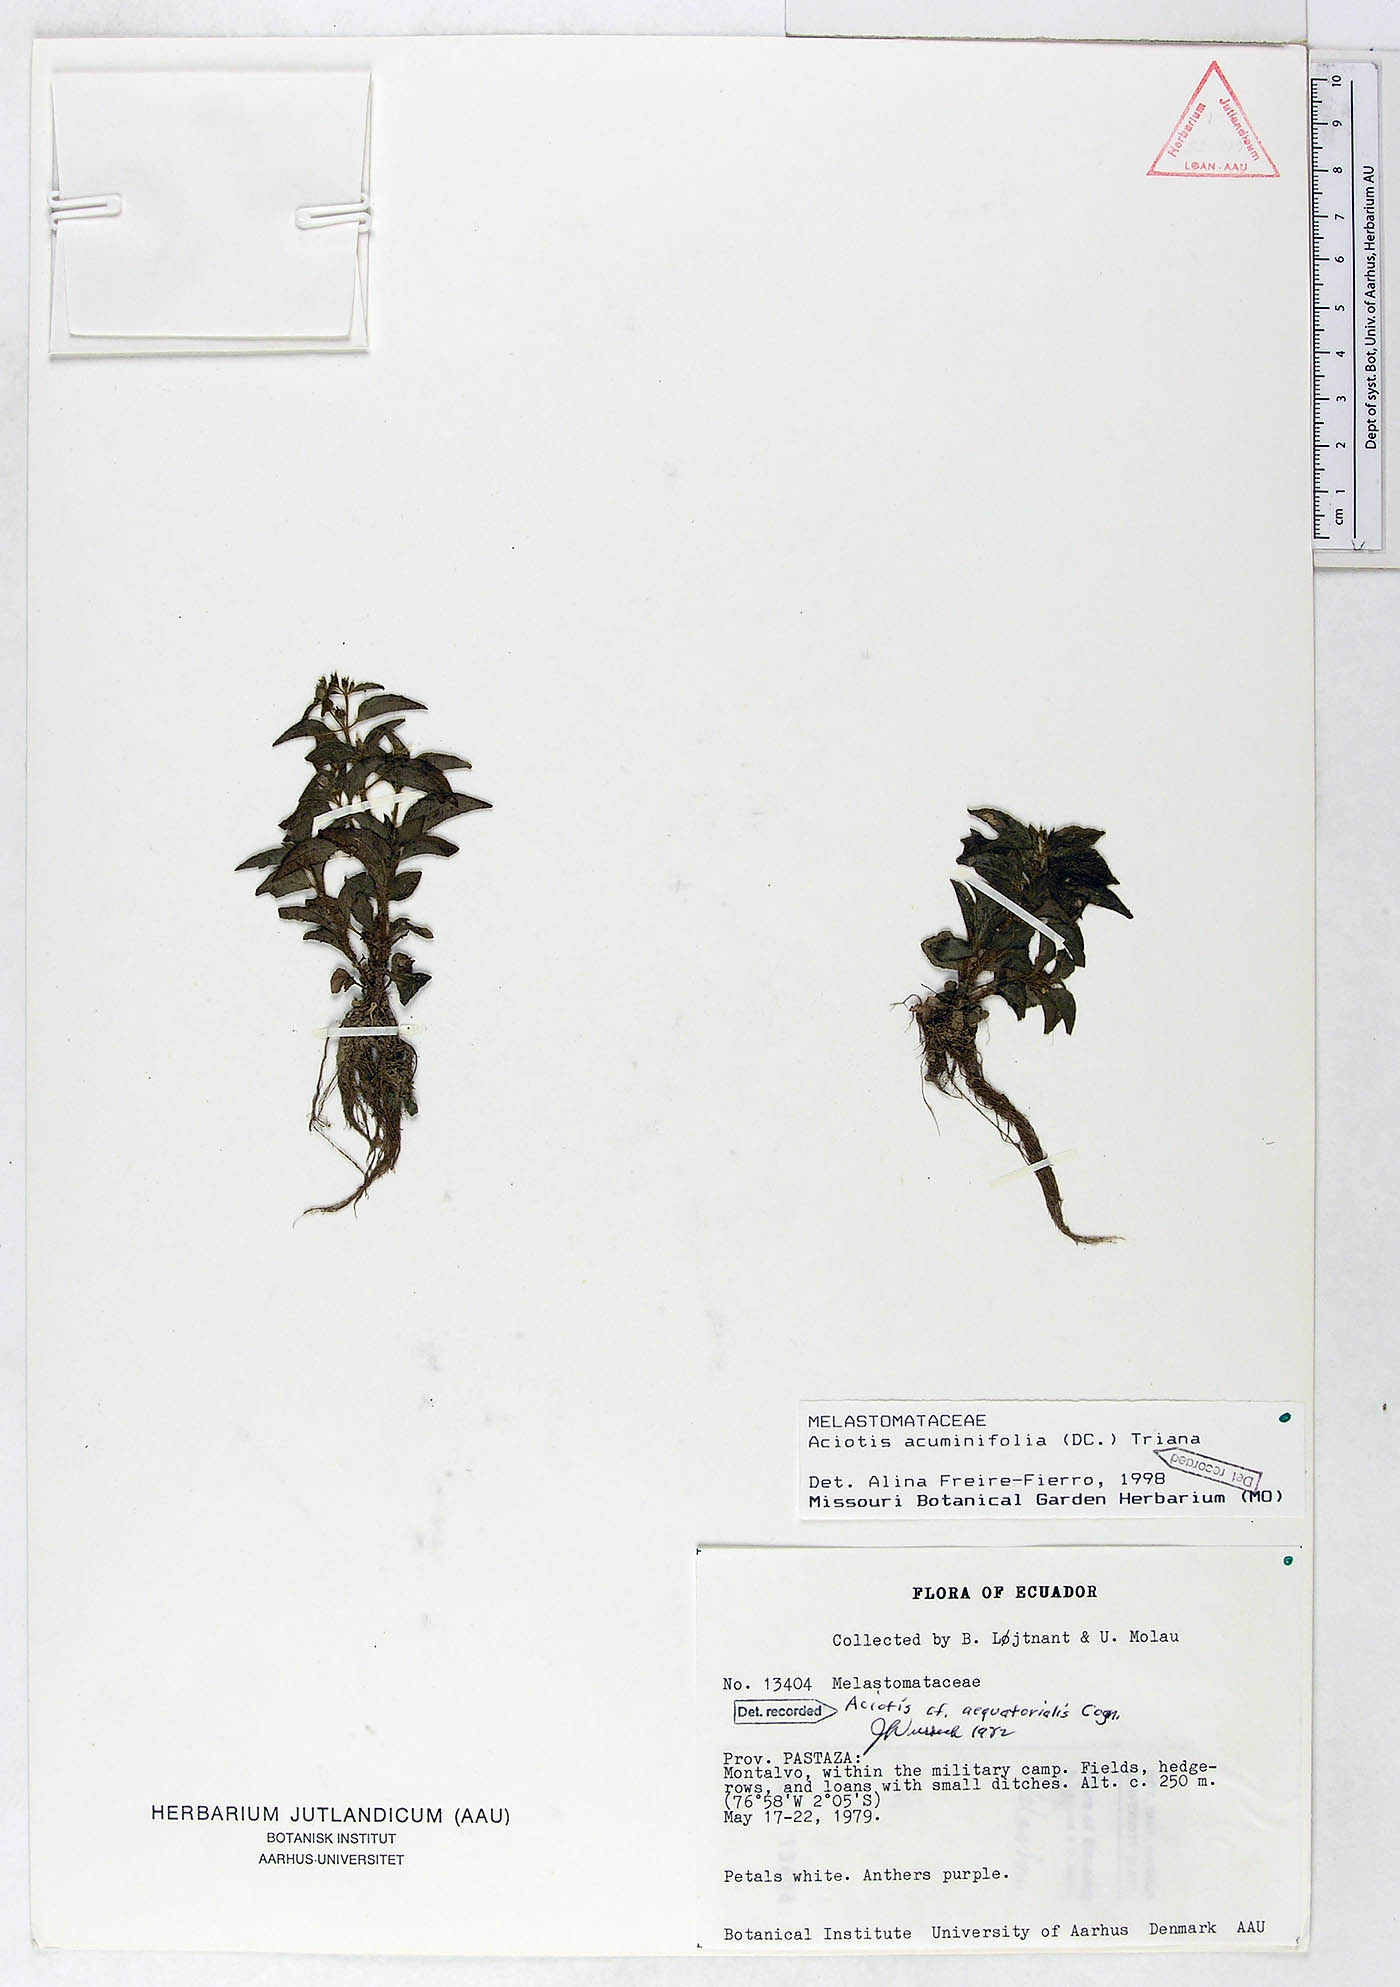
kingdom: Plantae
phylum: Tracheophyta
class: Magnoliopsida
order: Myrtales
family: Melastomataceae
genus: Aciotis
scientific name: Aciotis acuminifolia
